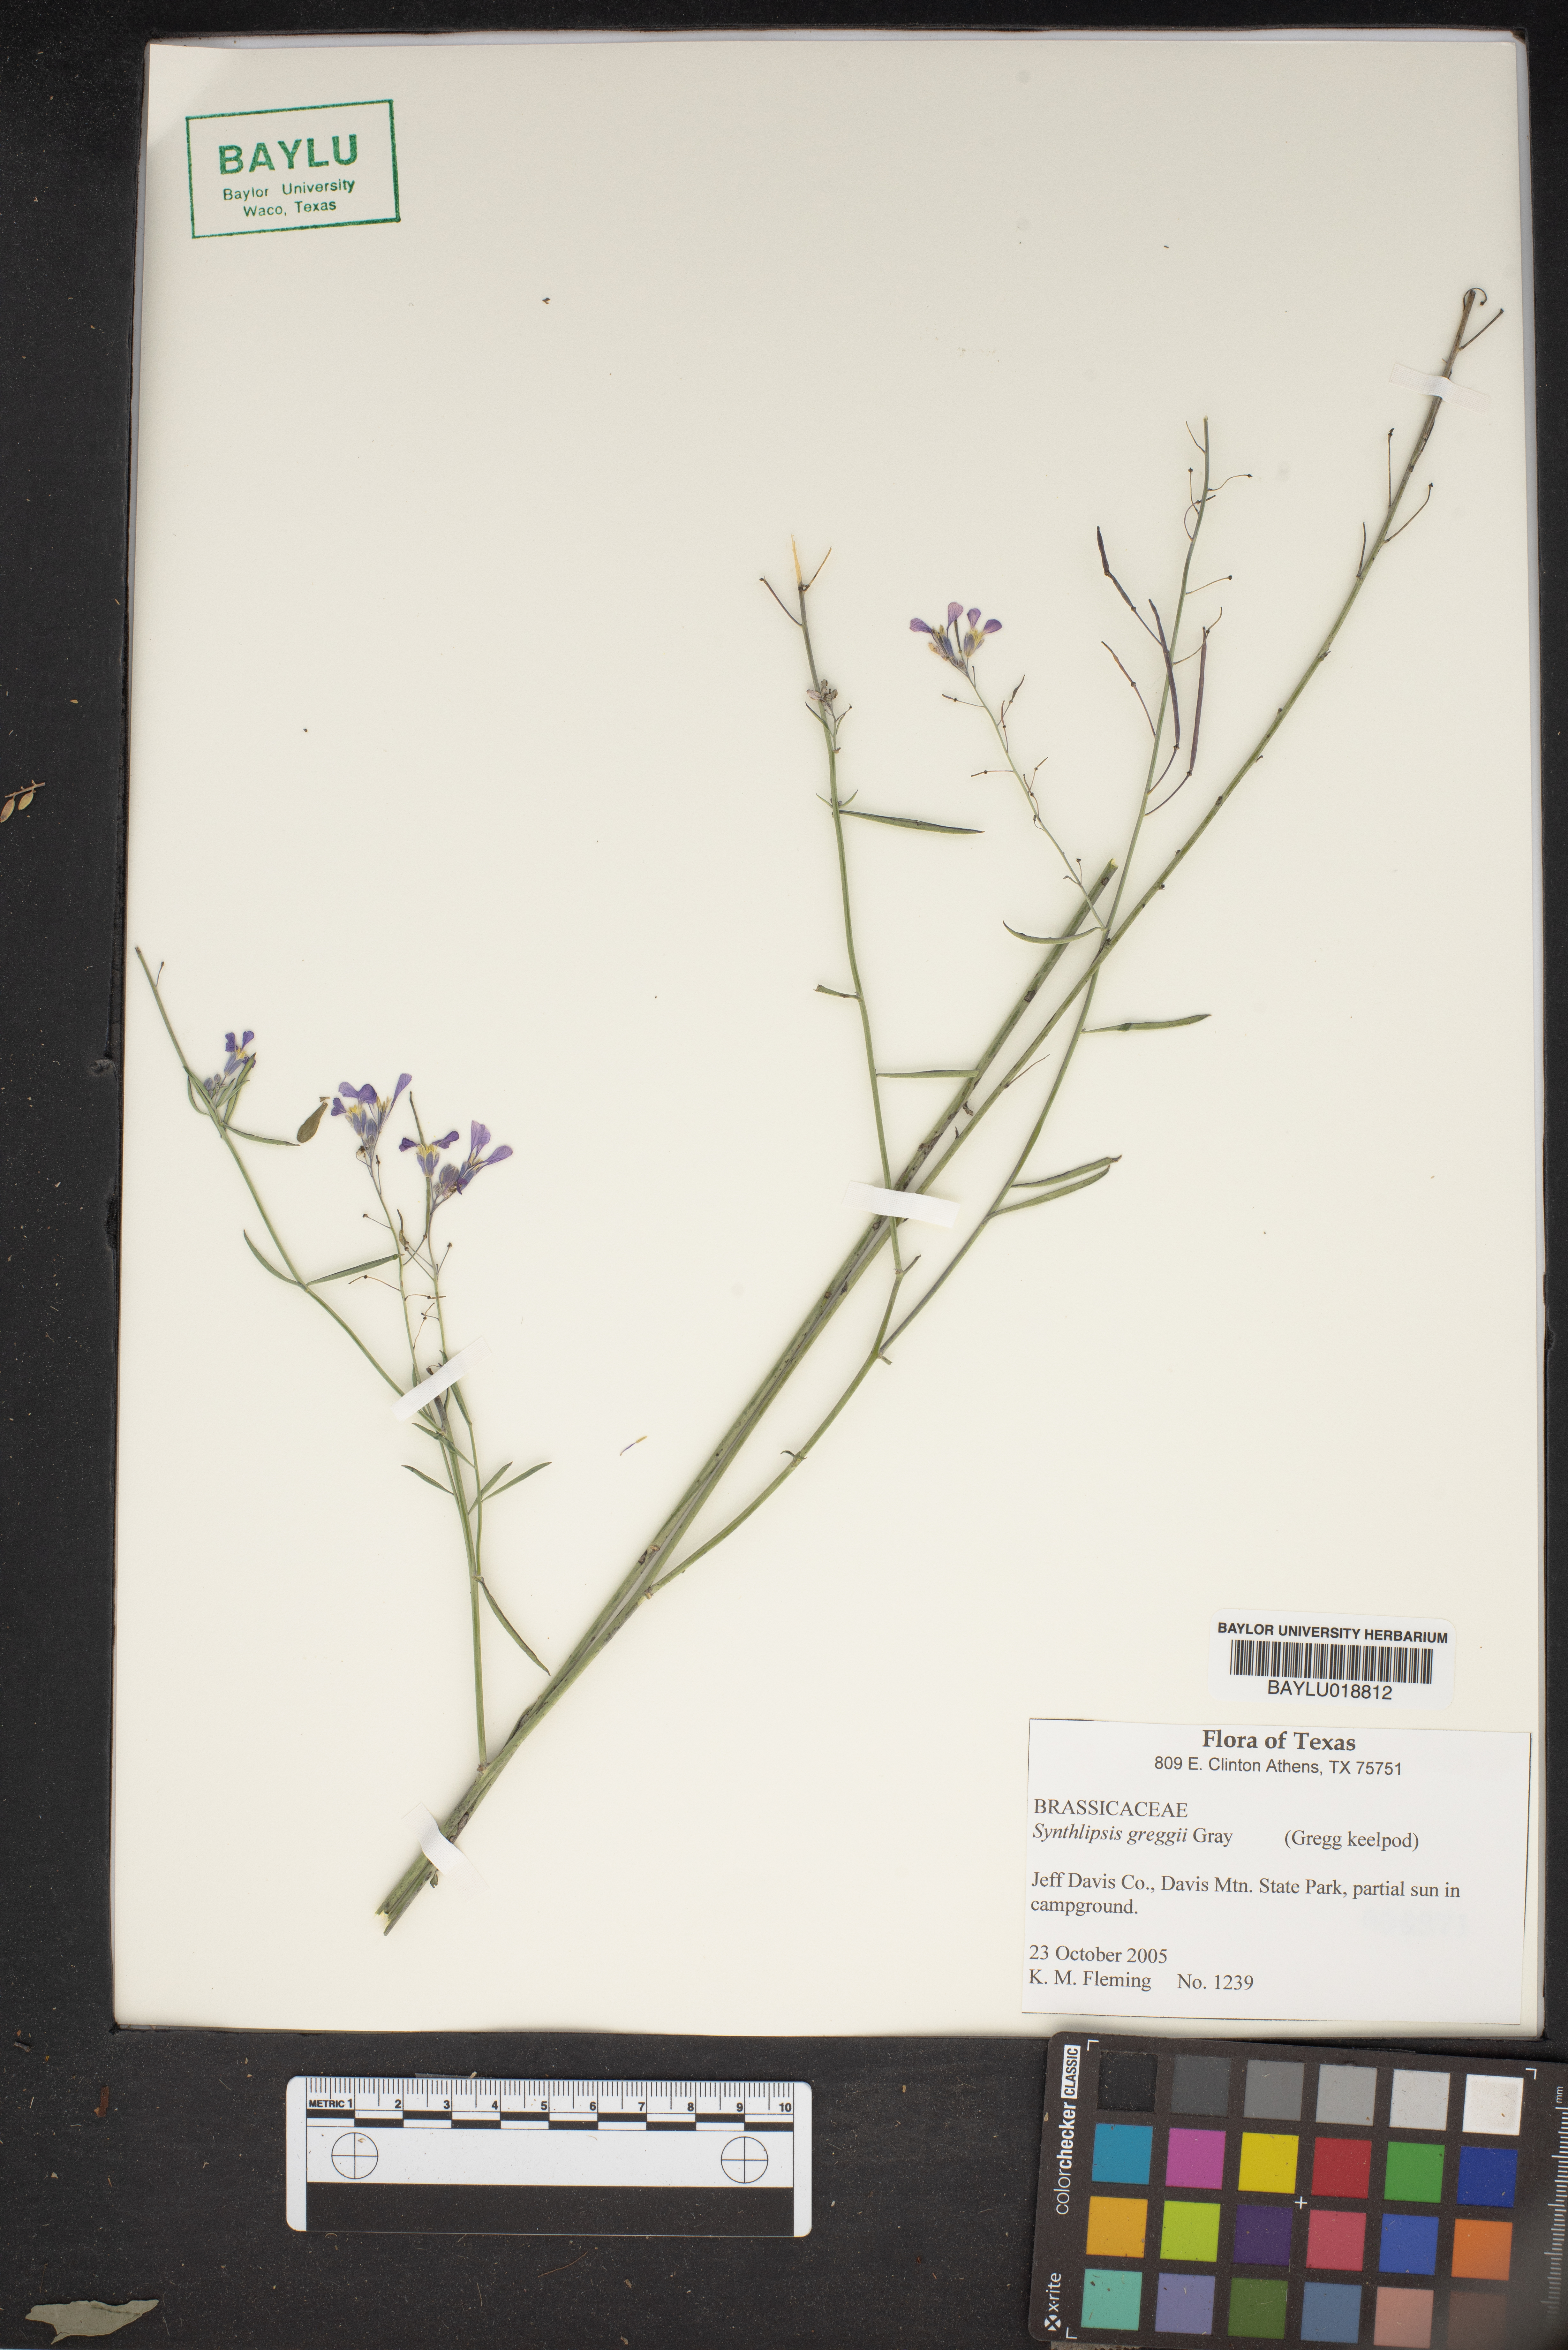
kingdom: Plantae
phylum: Tracheophyta
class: Magnoliopsida
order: Brassicales
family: Brassicaceae
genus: Synthlipsis
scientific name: Synthlipsis greggii
